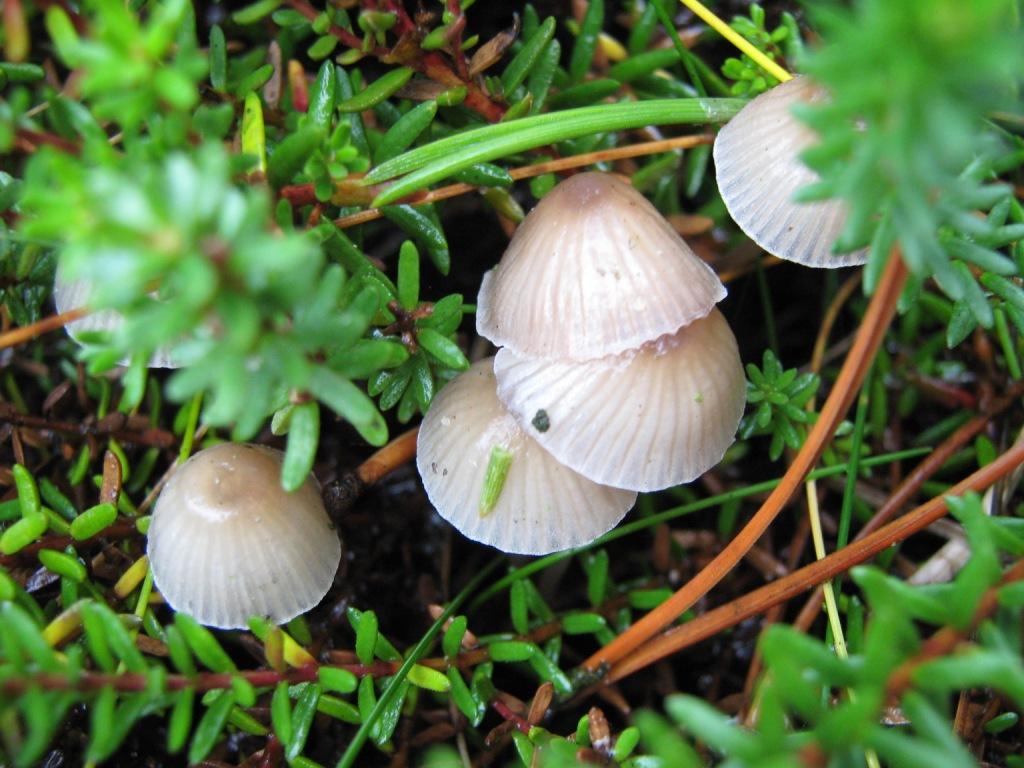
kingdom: Fungi
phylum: Basidiomycota
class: Agaricomycetes
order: Agaricales
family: Mycenaceae
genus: Mycena
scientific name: Mycena epipterygia
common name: gulstokket huesvamp
